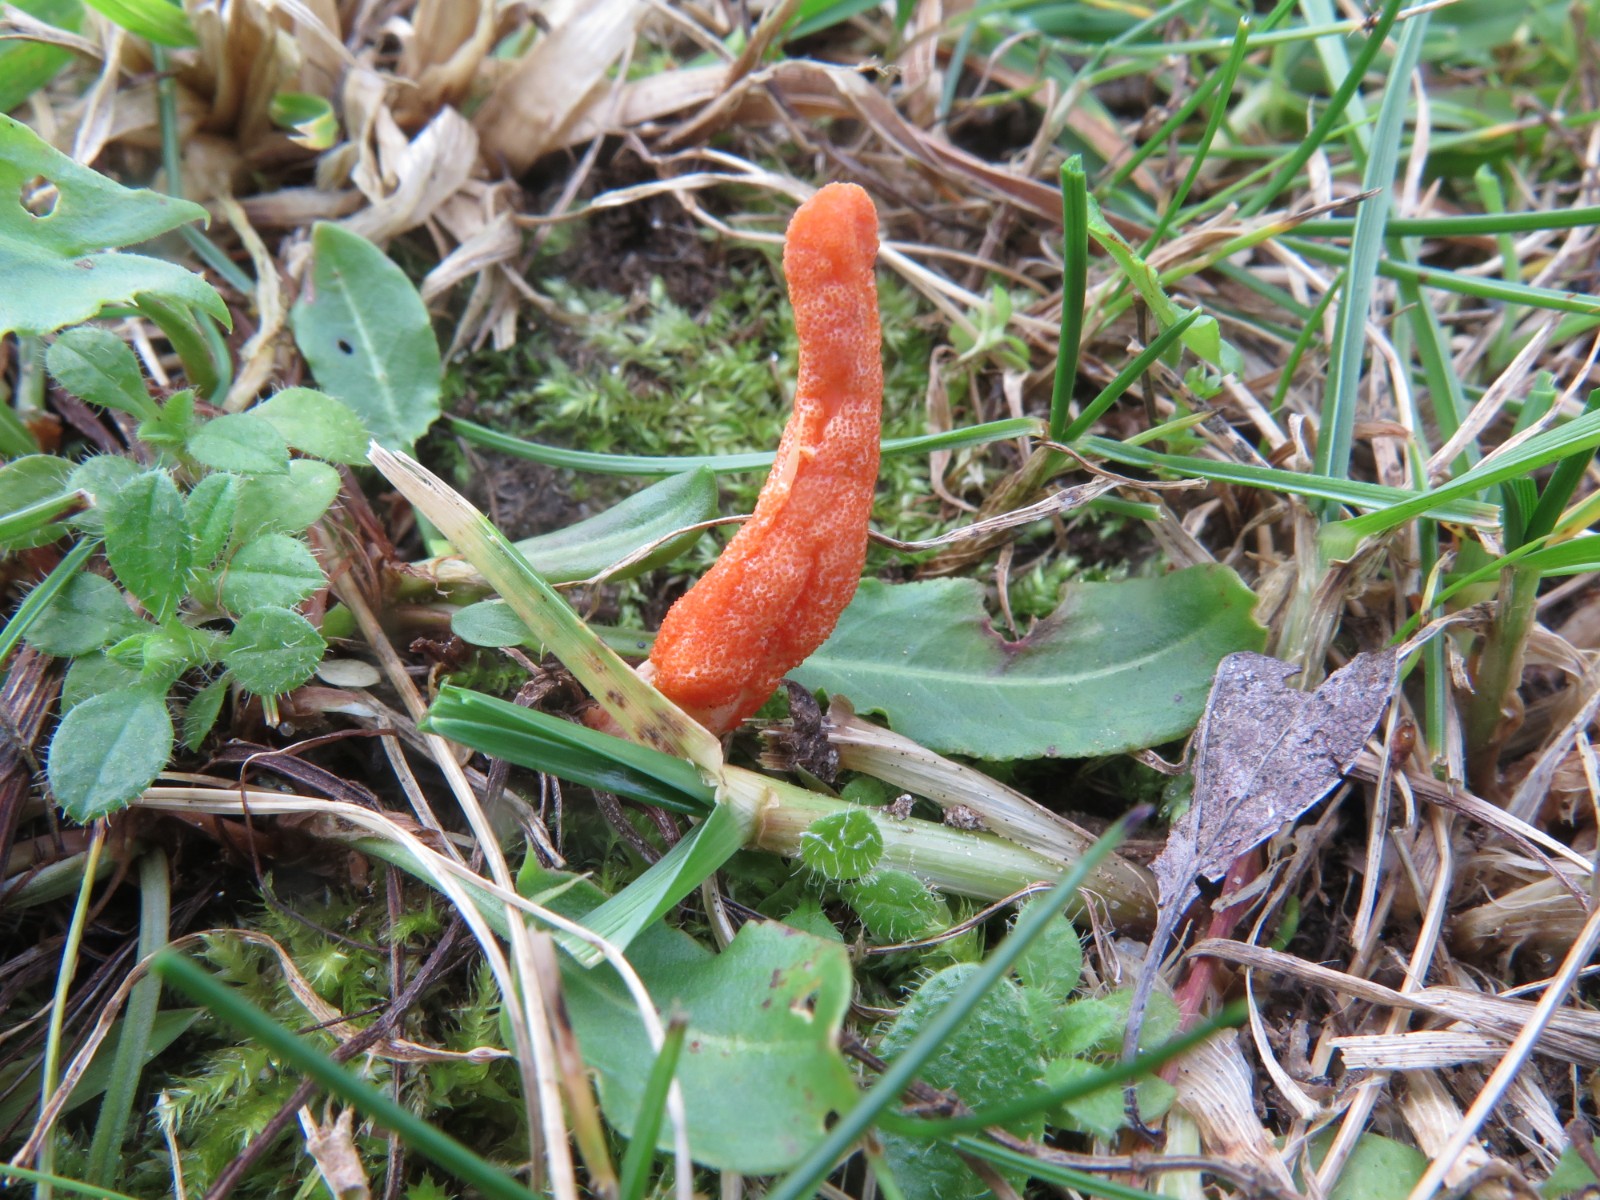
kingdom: Fungi
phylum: Ascomycota
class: Sordariomycetes
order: Hypocreales
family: Cordycipitaceae
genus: Cordyceps
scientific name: Cordyceps militaris
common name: puppe-snyltekølle
